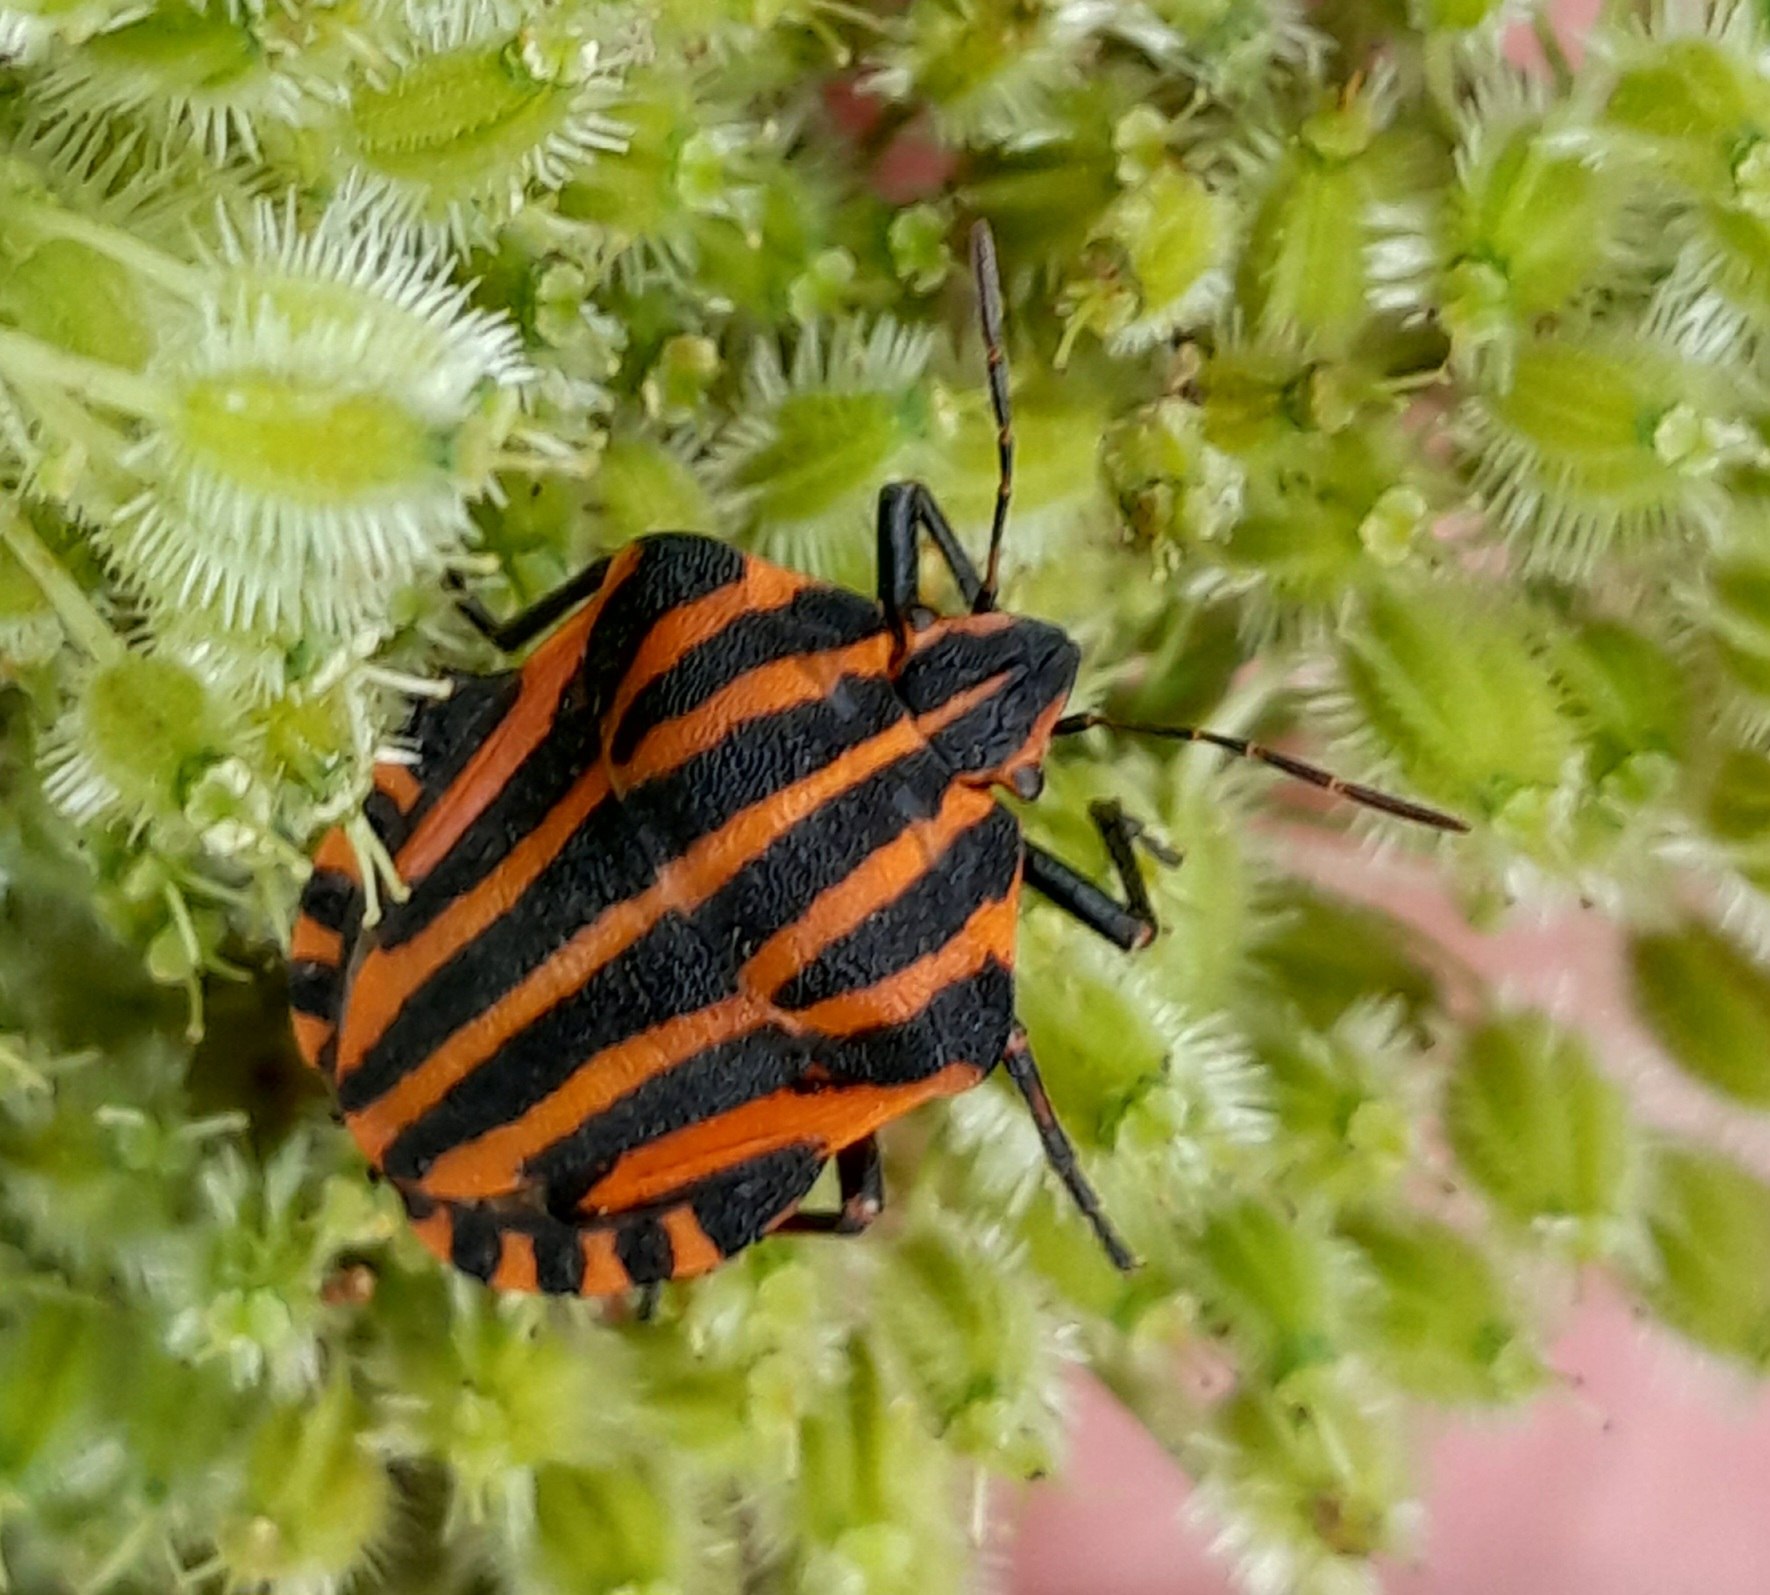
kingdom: Animalia
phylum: Arthropoda
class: Insecta
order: Hemiptera
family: Pentatomidae
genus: Graphosoma
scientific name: Graphosoma italicum
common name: Stribetæge
